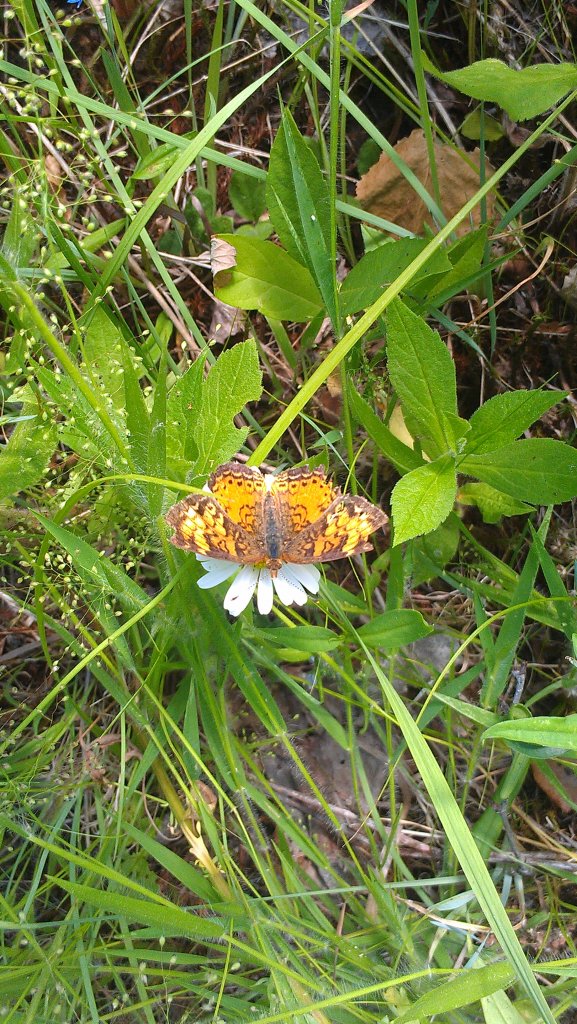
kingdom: Animalia
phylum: Arthropoda
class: Insecta
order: Lepidoptera
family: Nymphalidae
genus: Phyciodes
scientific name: Phyciodes tharos
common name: Northern Crescent
